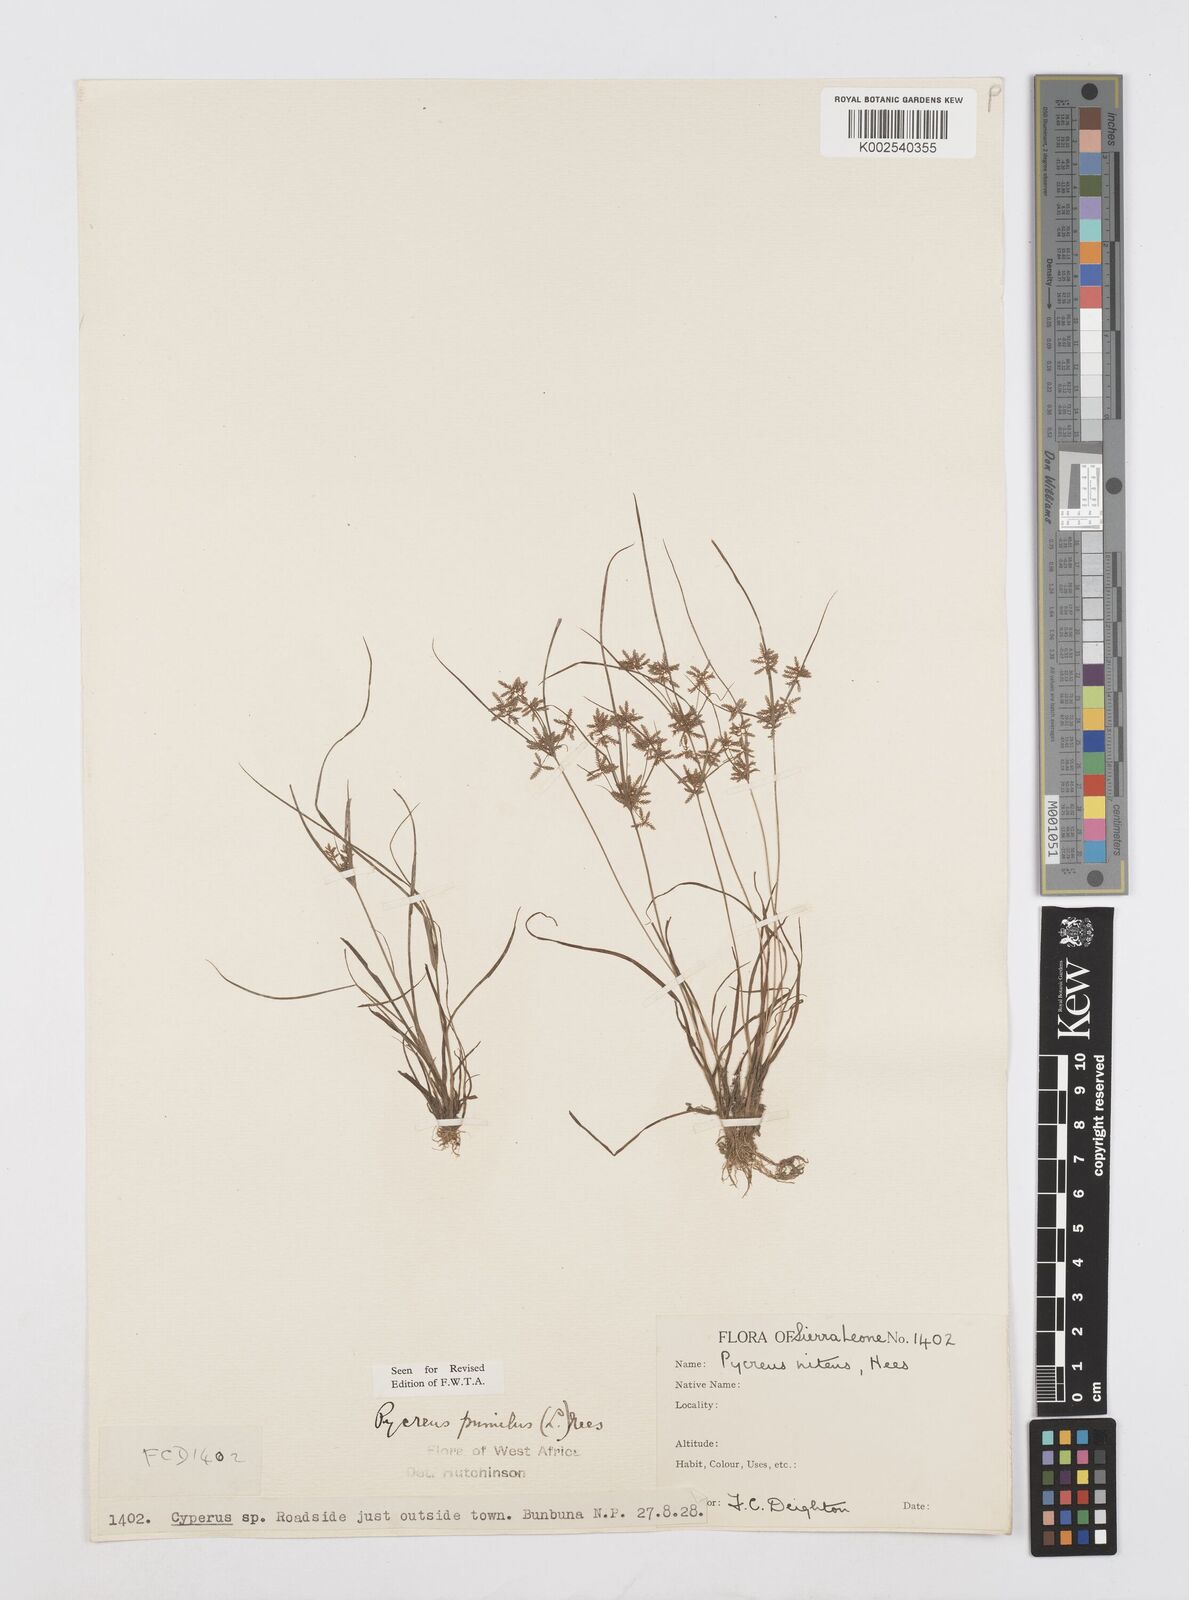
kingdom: Plantae
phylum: Tracheophyta
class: Liliopsida
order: Poales
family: Cyperaceae
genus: Cyperus
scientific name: Cyperus pumilus
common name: Low flatsedge
